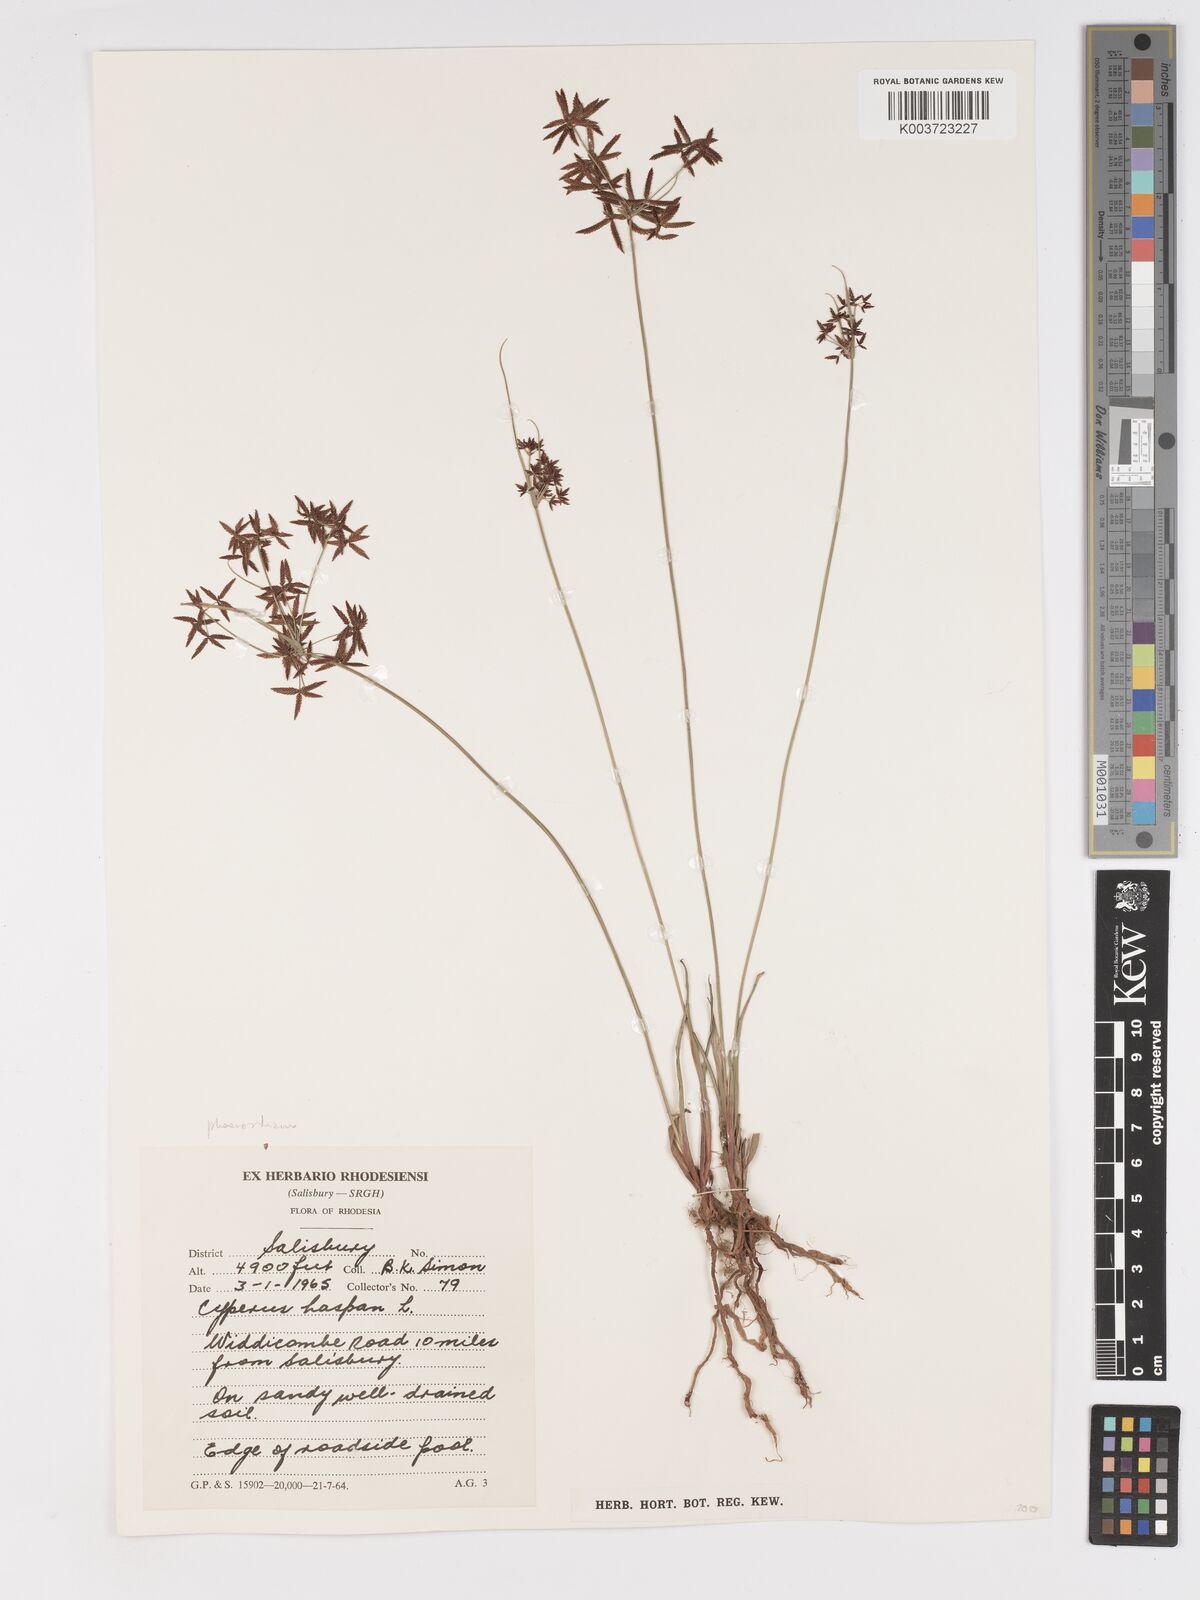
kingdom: Plantae
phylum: Tracheophyta
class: Liliopsida
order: Poales
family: Cyperaceae
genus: Cyperus
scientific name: Cyperus haspan
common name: Haspan flatsedge
